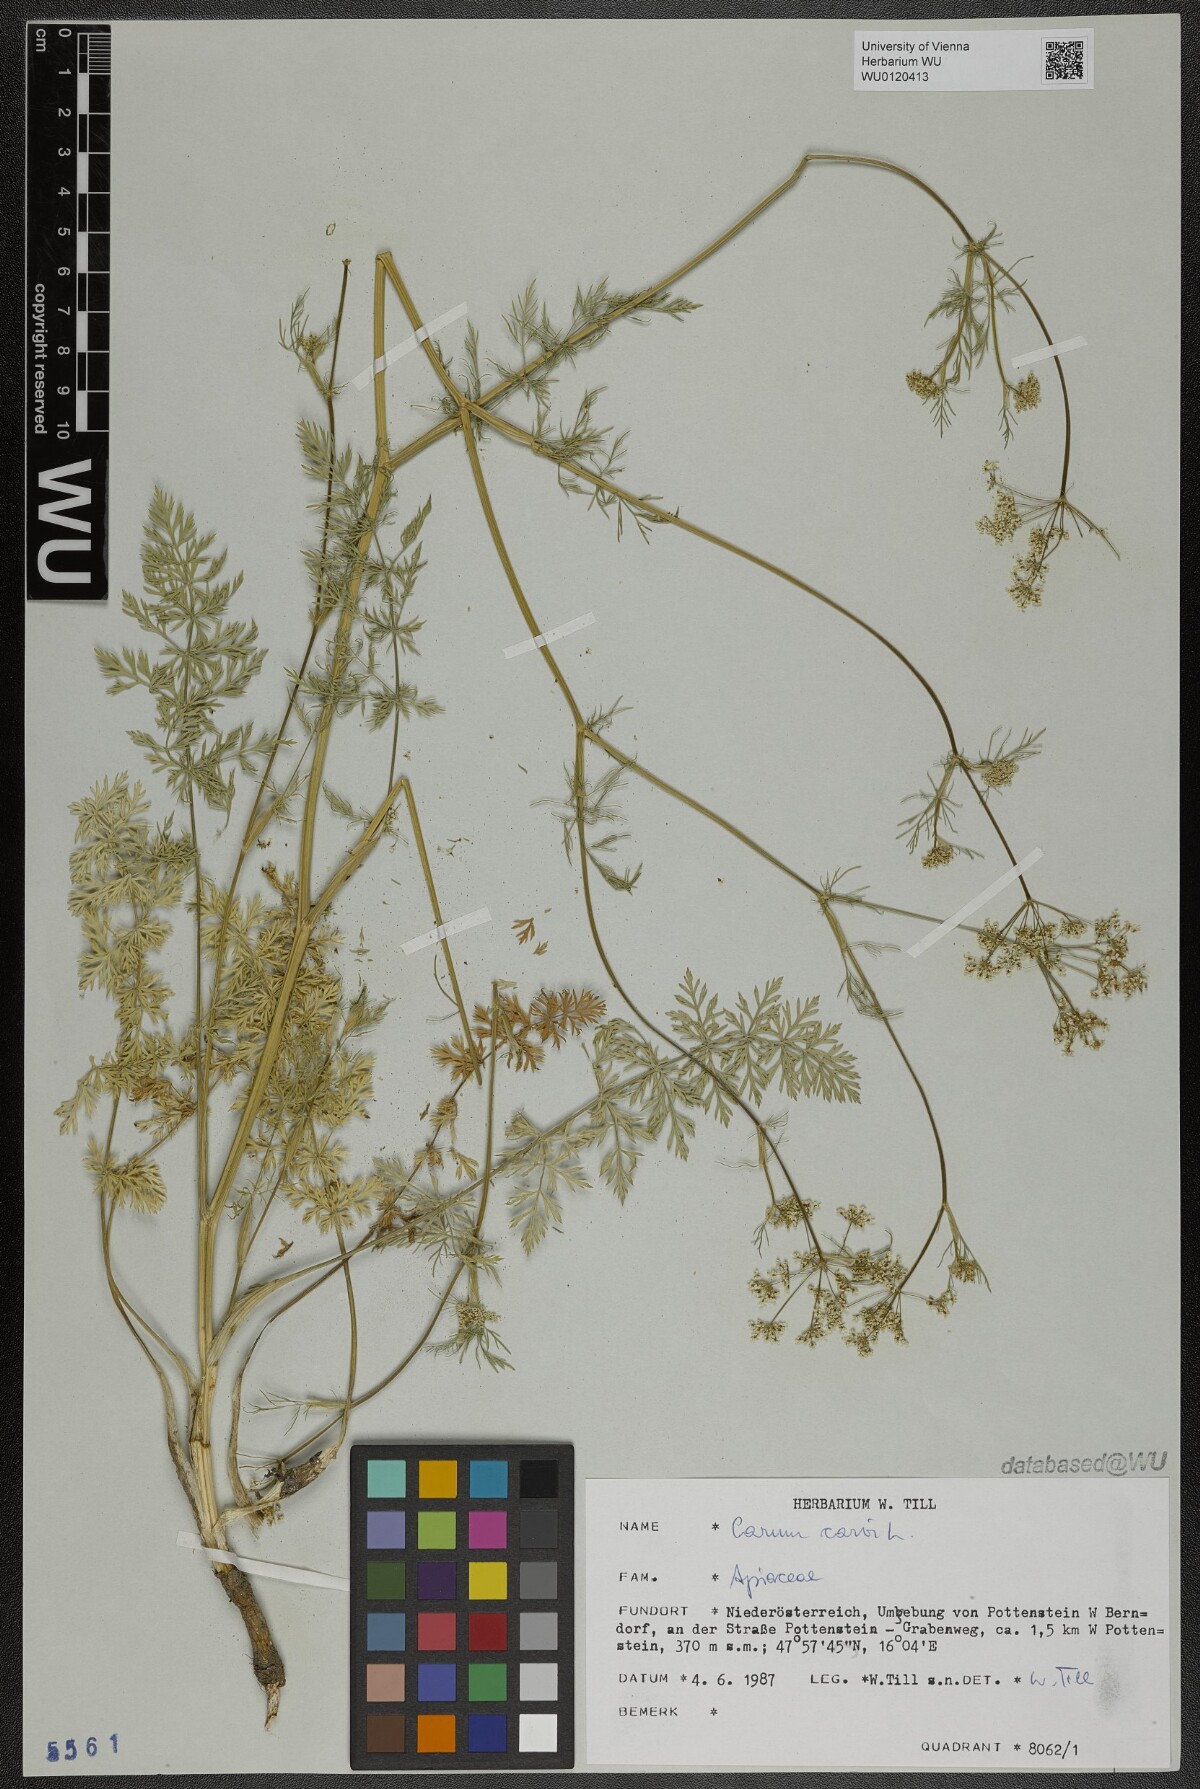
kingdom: Plantae
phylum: Tracheophyta
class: Magnoliopsida
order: Apiales
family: Apiaceae
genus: Carum
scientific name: Carum carvi
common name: Caraway
